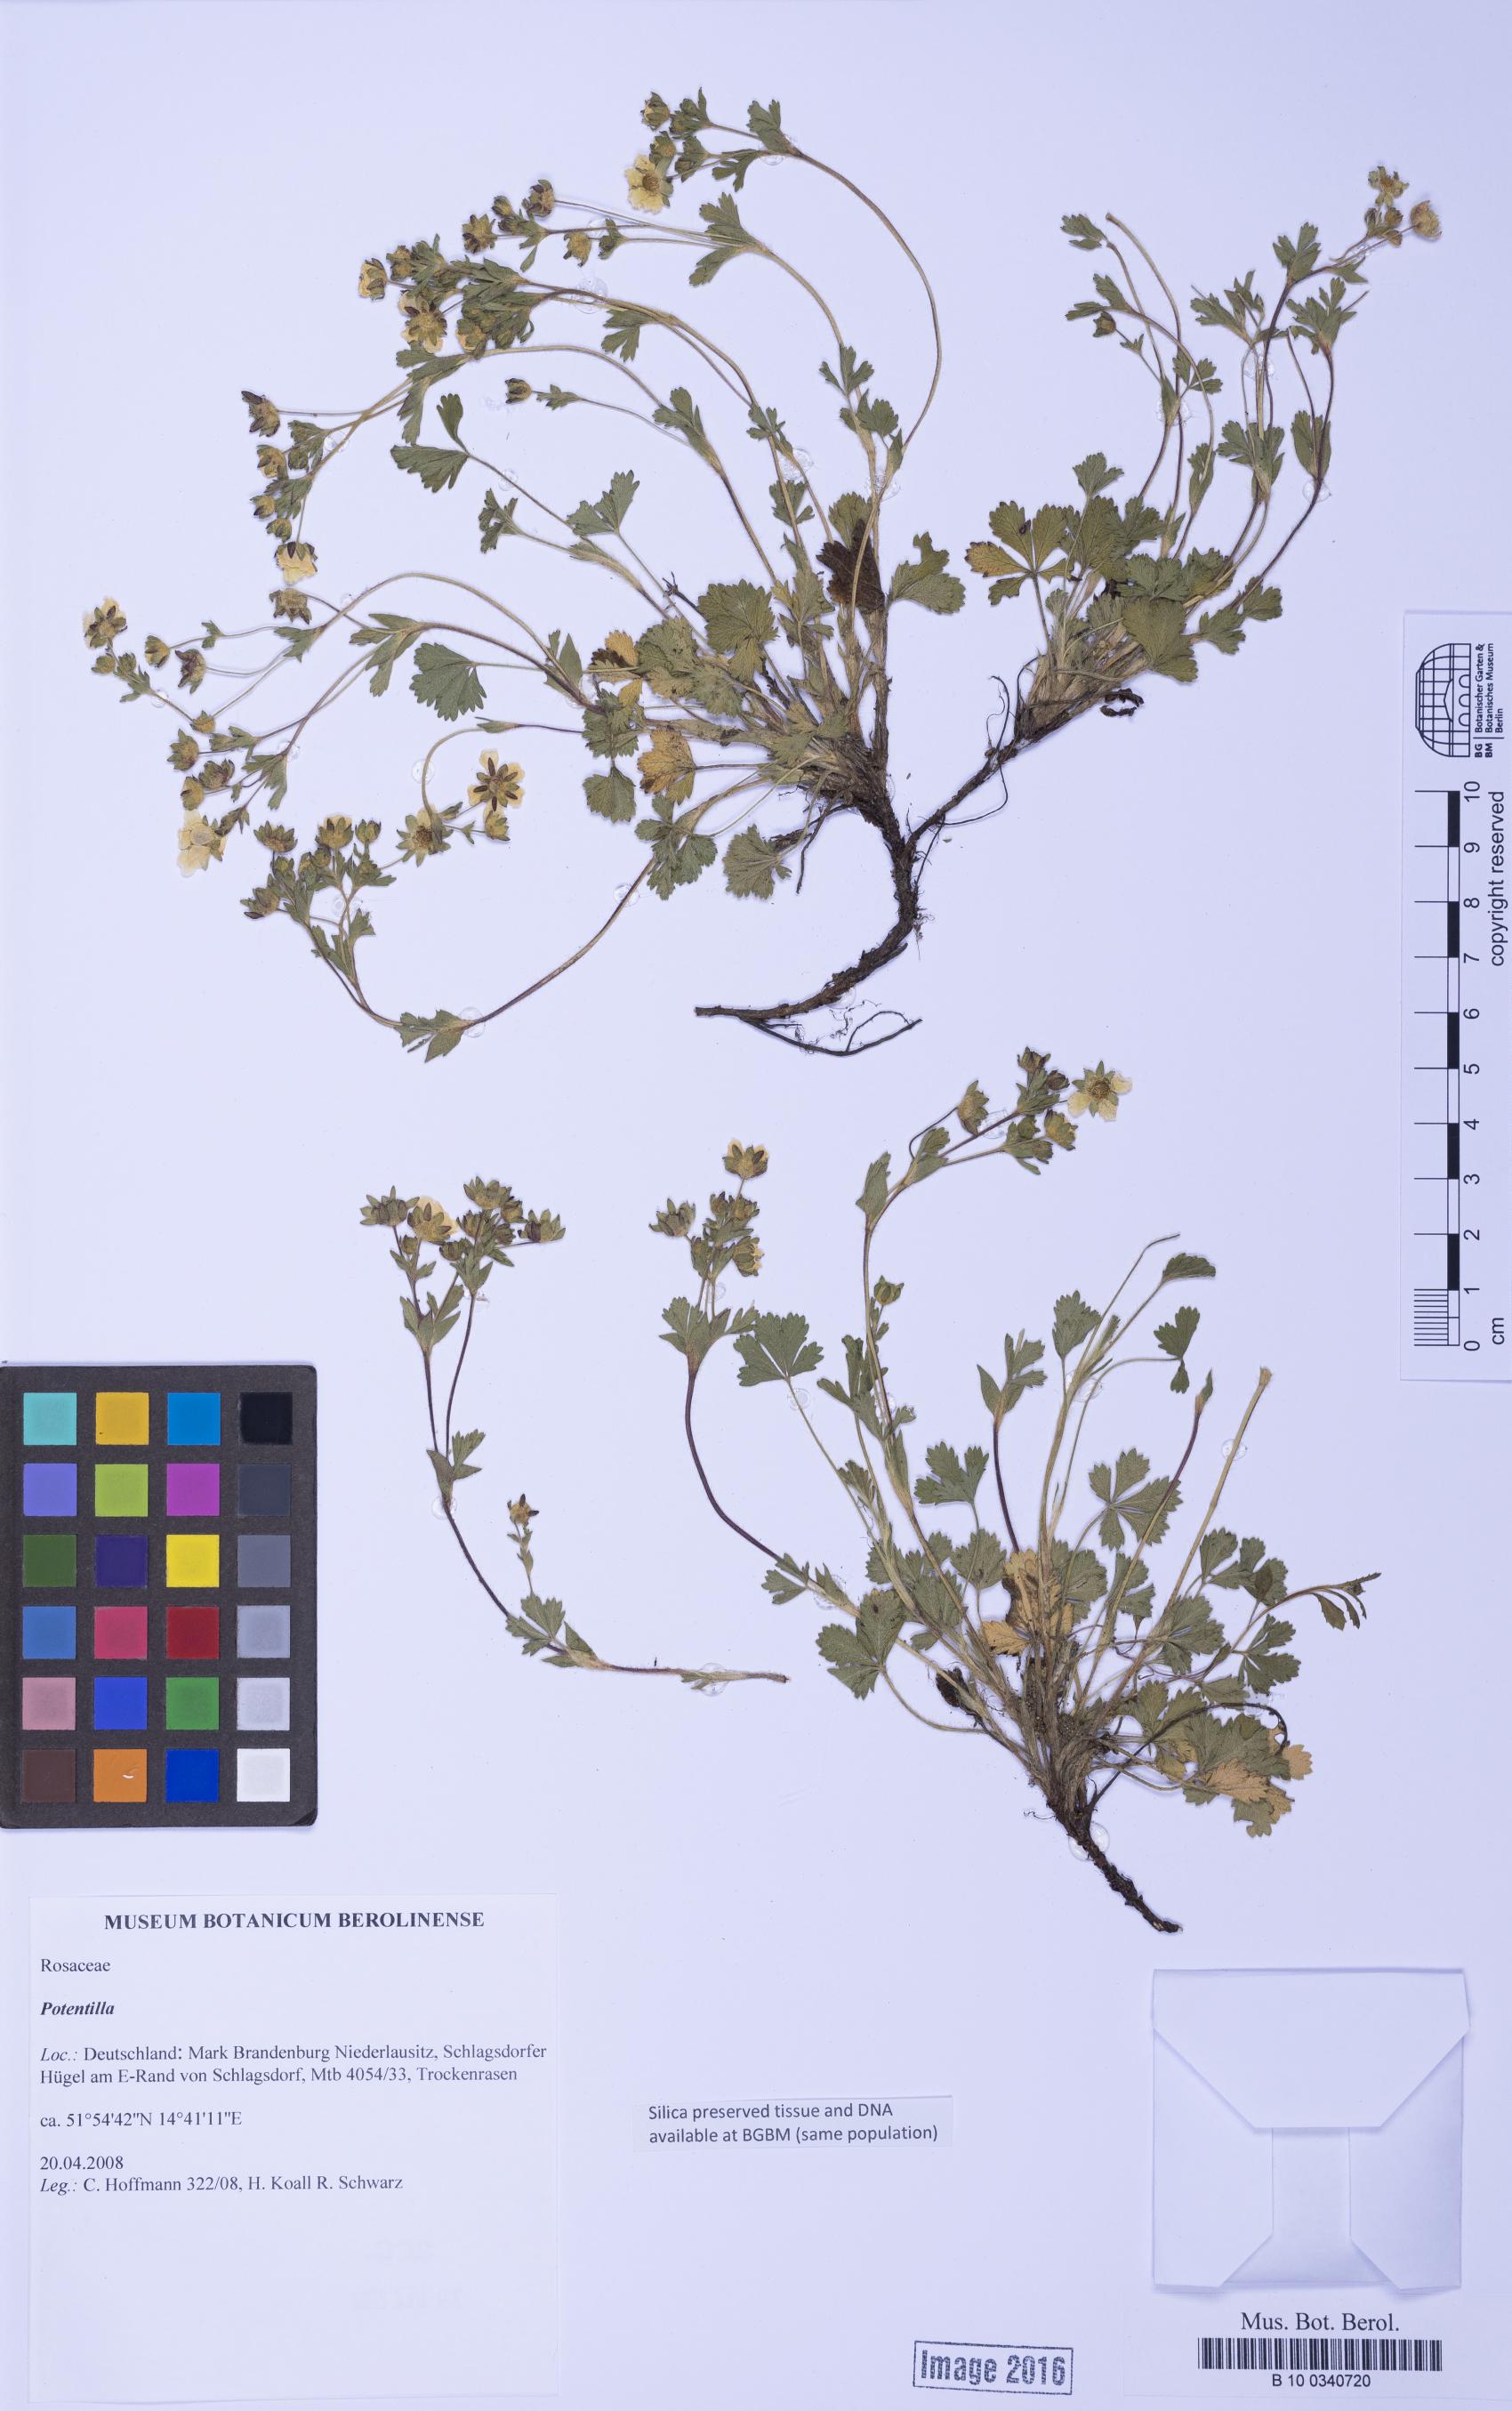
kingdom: Plantae
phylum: Tracheophyta
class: Magnoliopsida
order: Rosales
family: Rosaceae
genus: Potentilla
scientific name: Potentilla
